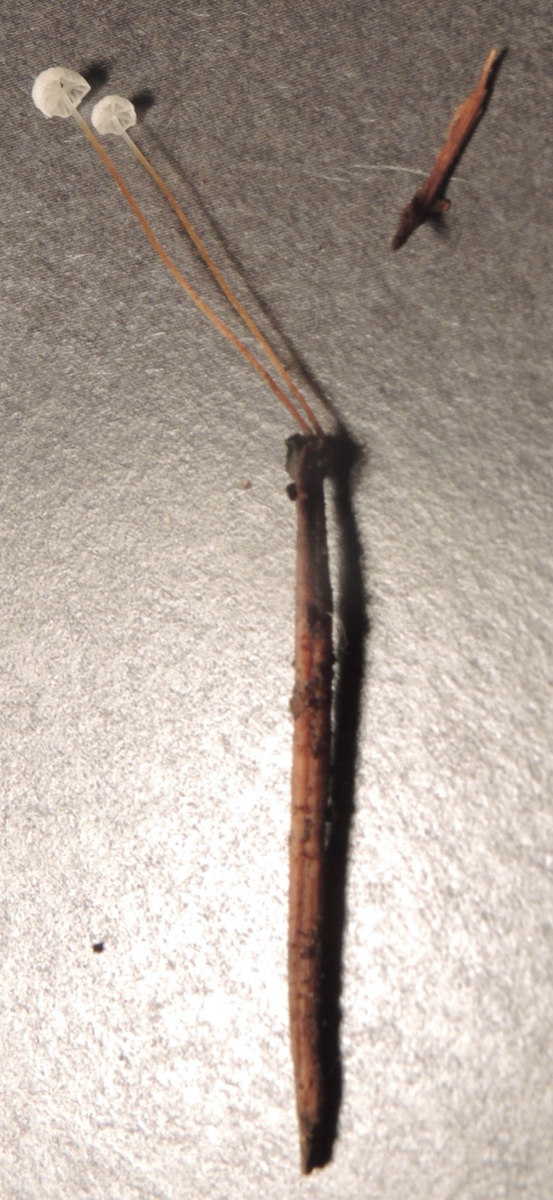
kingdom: Fungi
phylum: Basidiomycota
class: Agaricomycetes
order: Agaricales
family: Physalacriaceae
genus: Rhizomarasmius
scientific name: Rhizomarasmius setosus
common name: bøgeblads-bruskhat
